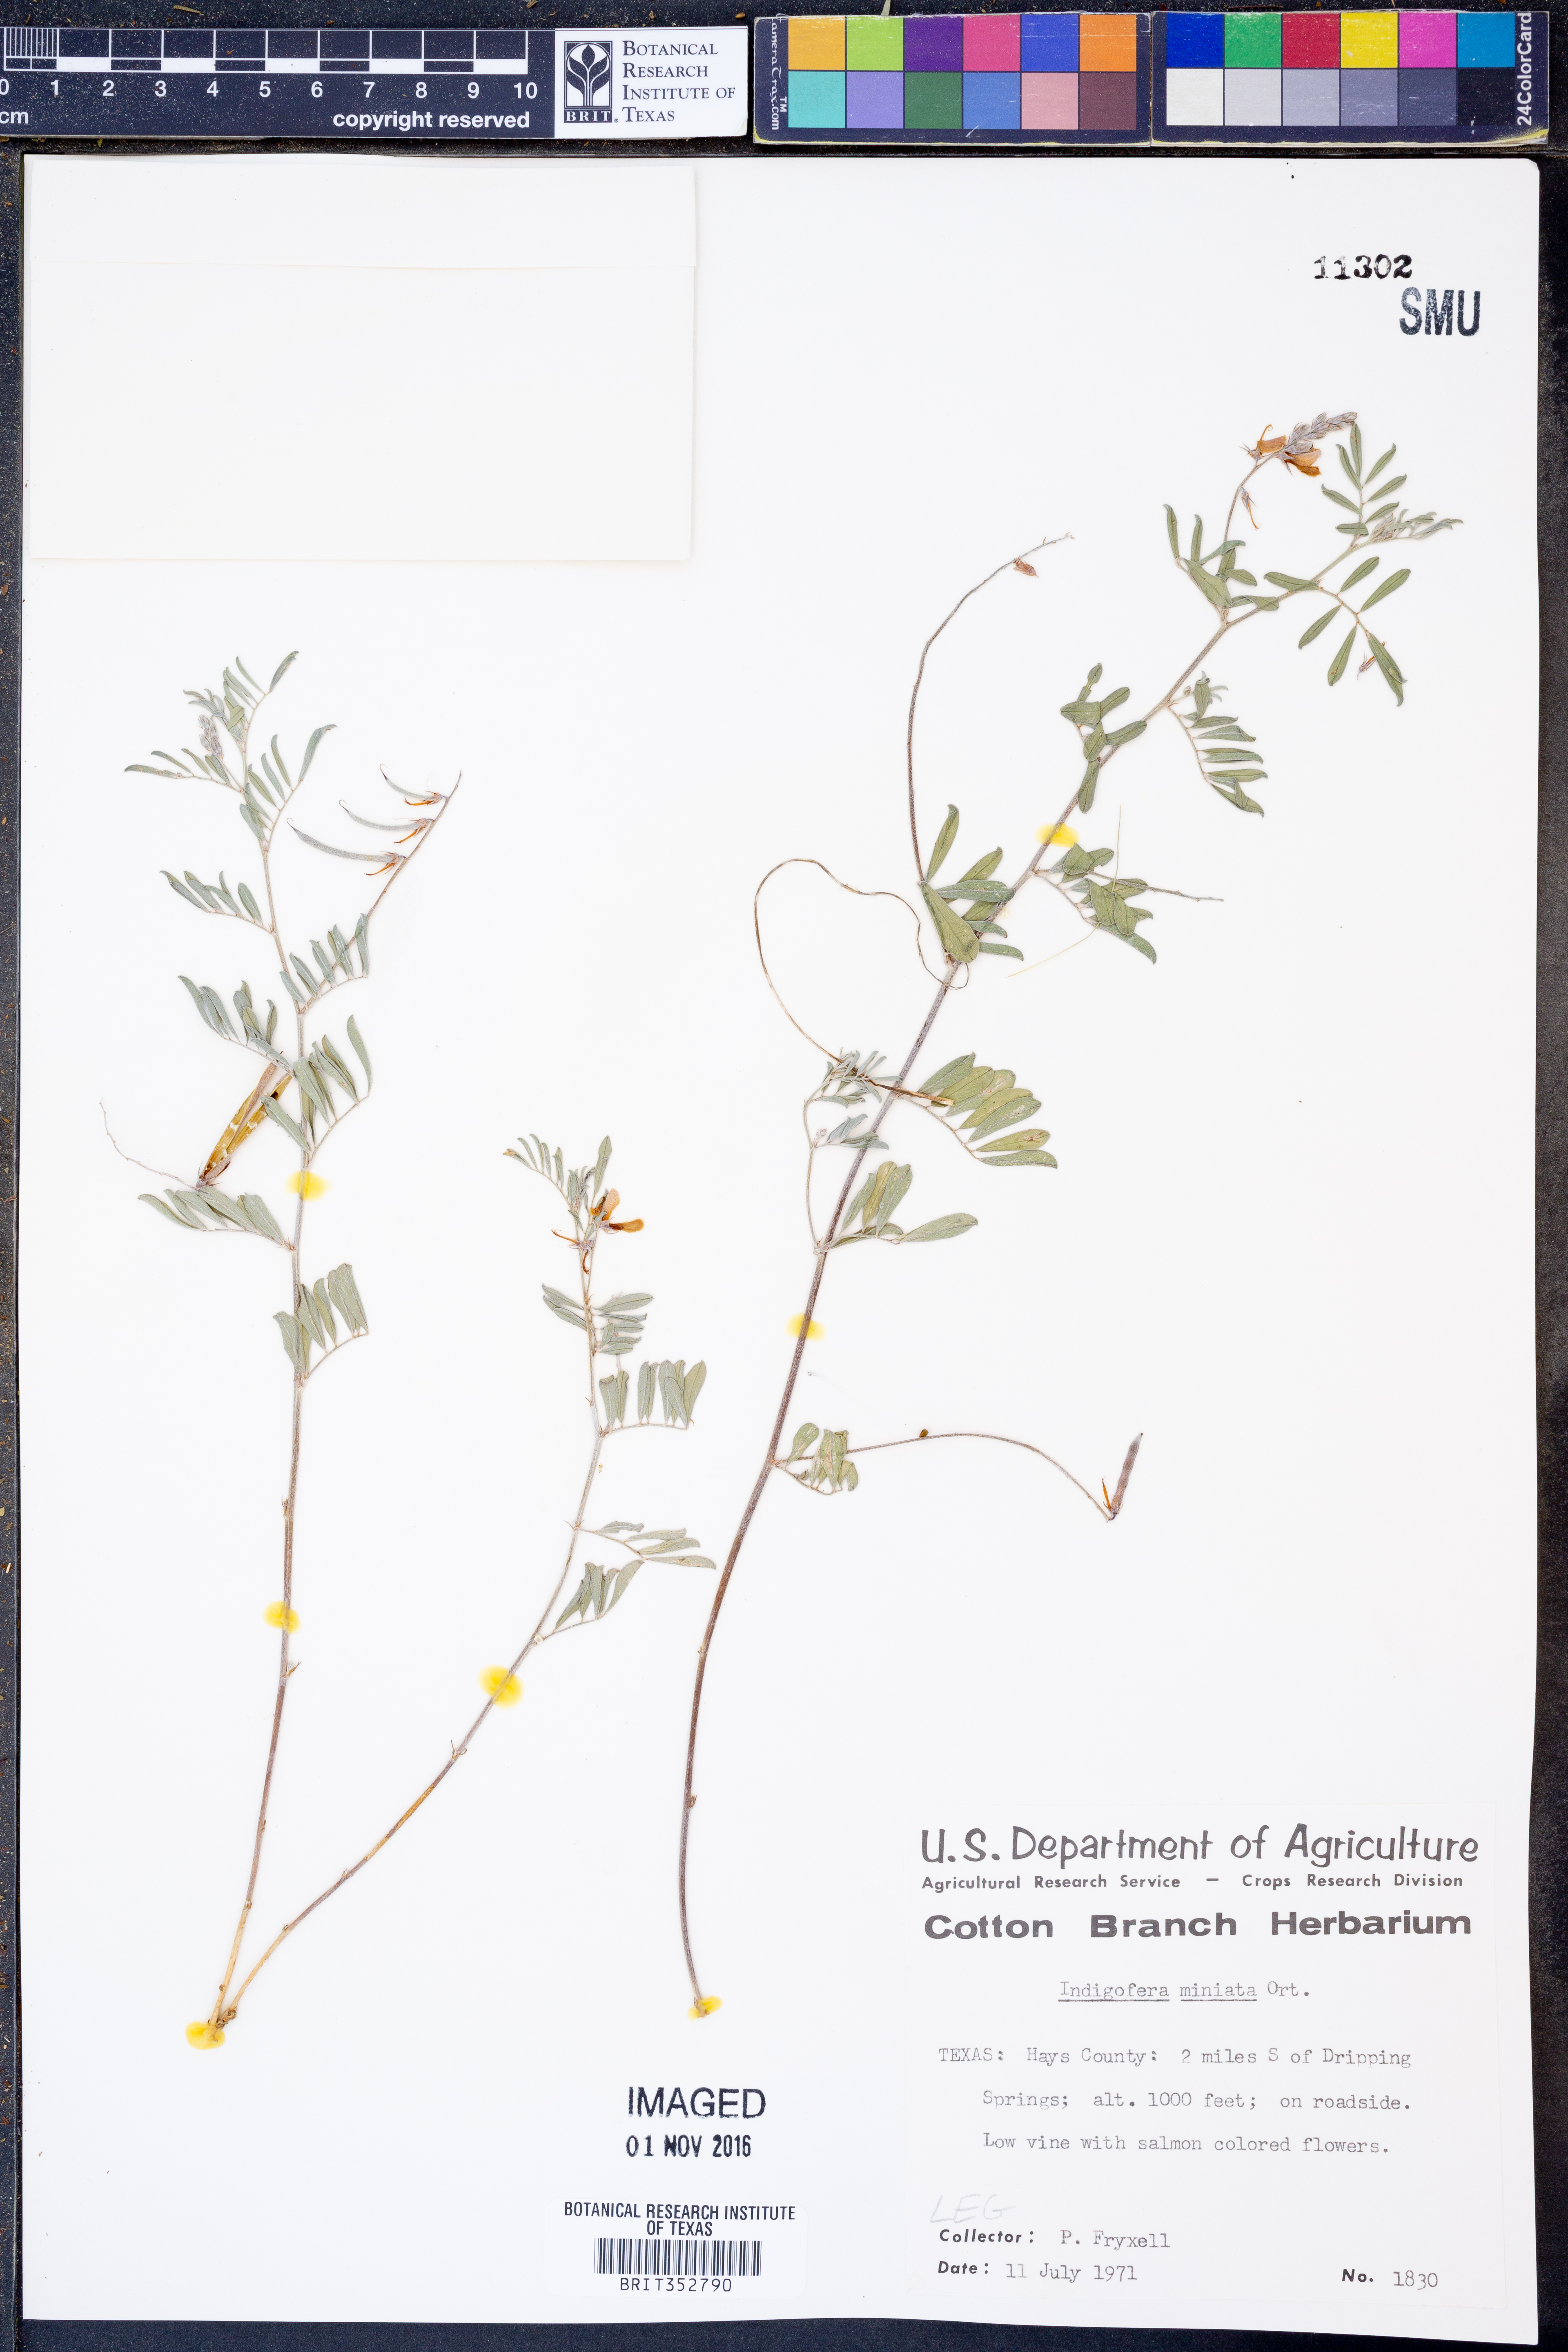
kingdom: Plantae
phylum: Tracheophyta
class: Magnoliopsida
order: Fabales
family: Fabaceae
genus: Indigofera
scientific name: Indigofera miniata
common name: Coast indigo
